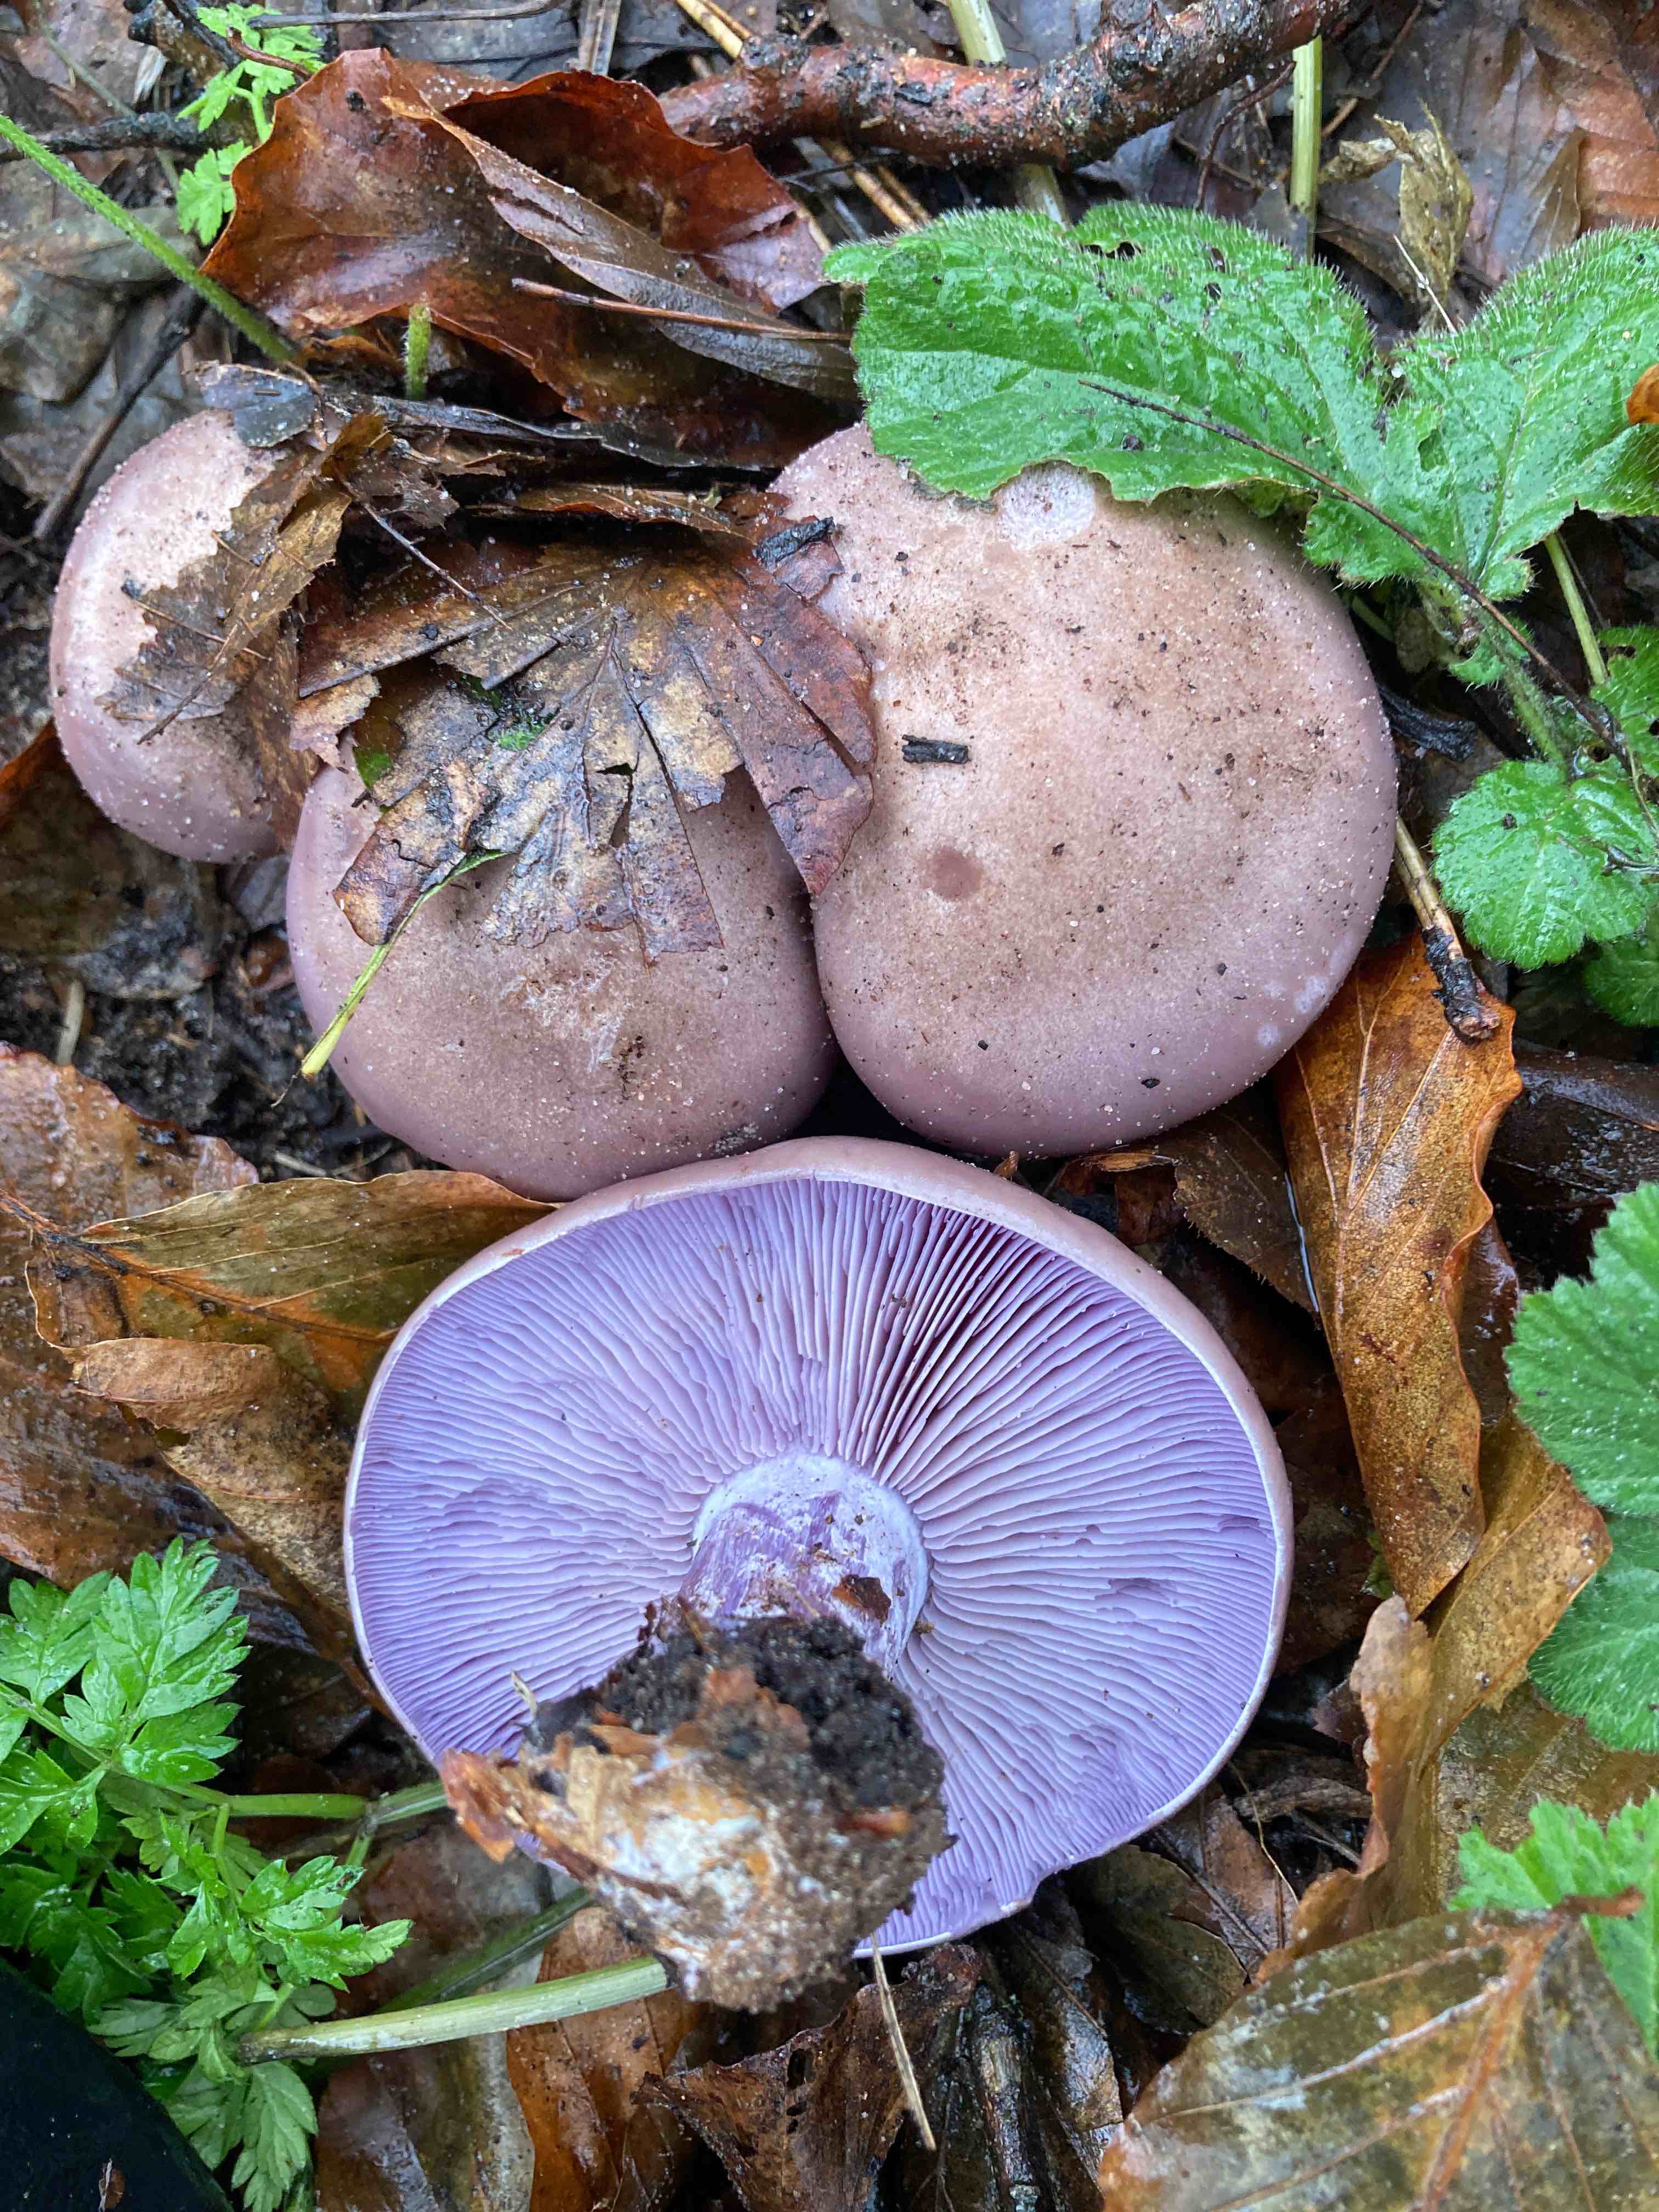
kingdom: Fungi
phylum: Basidiomycota
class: Agaricomycetes
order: Agaricales
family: Tricholomataceae
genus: Lepista
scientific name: Lepista nuda
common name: violet hekseringshat
